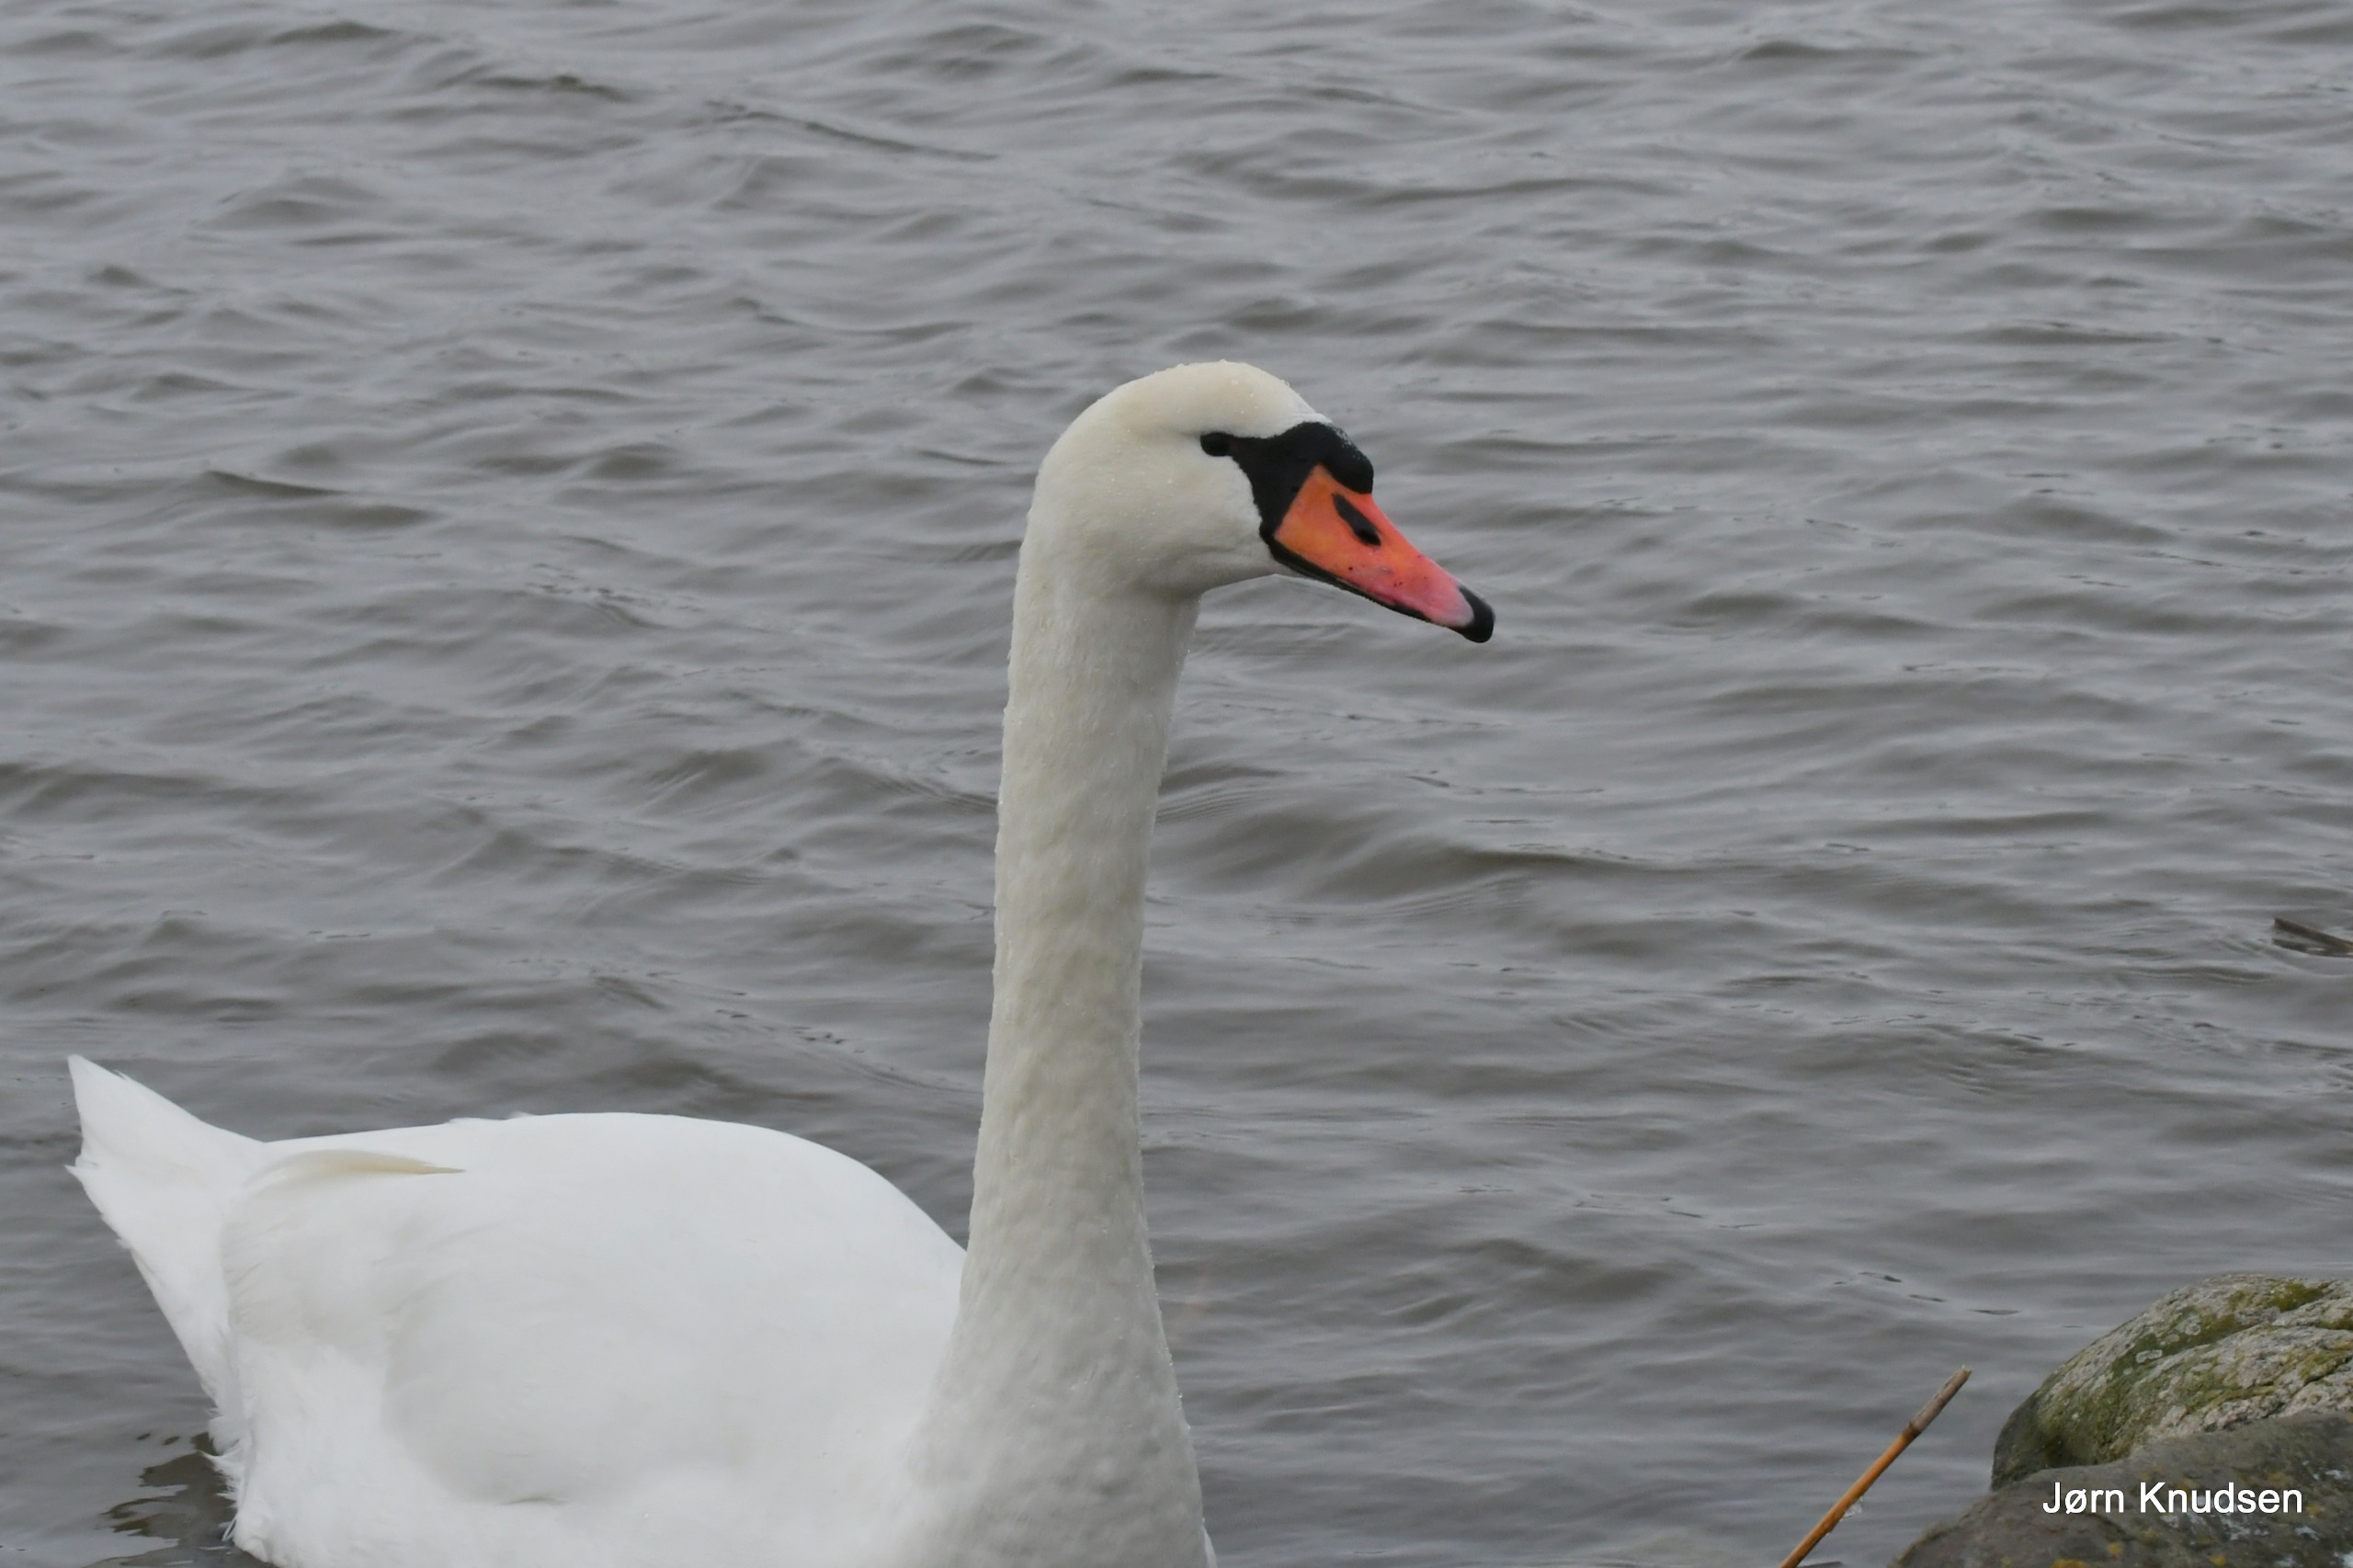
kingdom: Animalia
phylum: Chordata
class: Aves
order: Anseriformes
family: Anatidae
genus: Cygnus
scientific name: Cygnus olor
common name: Knopsvane
